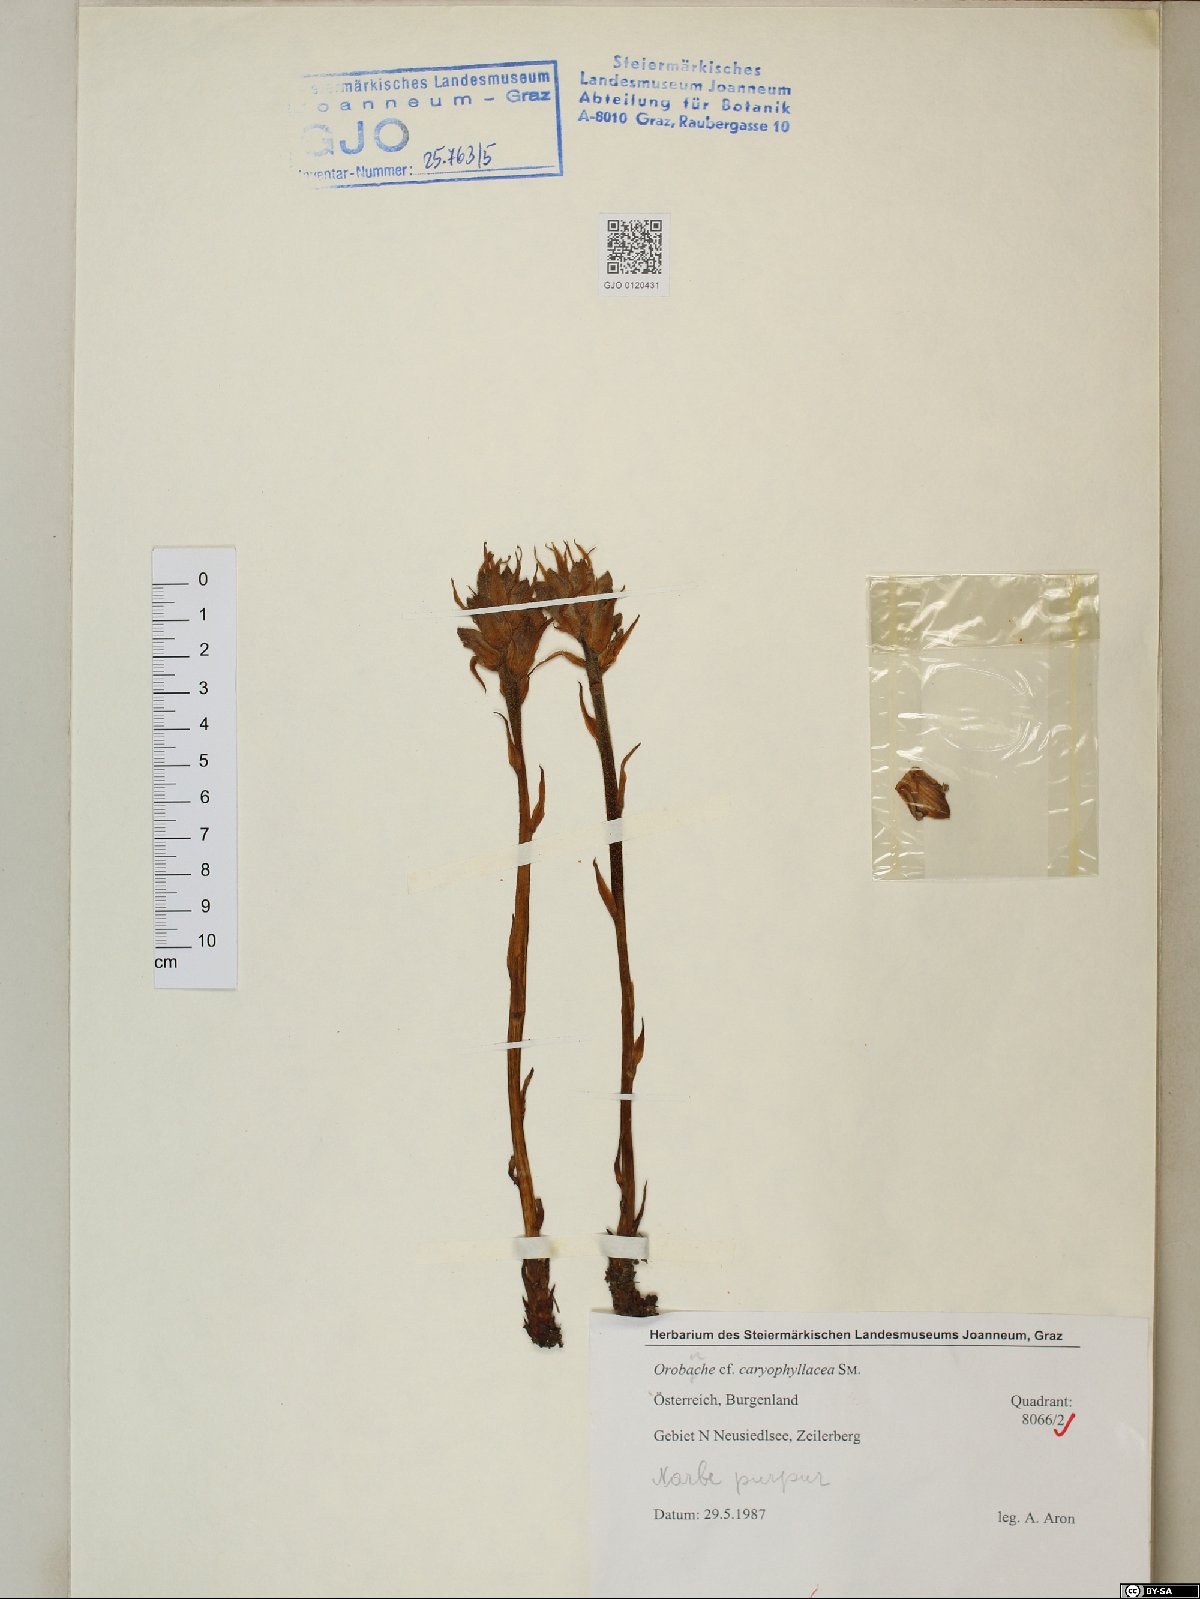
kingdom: Plantae
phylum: Tracheophyta
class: Magnoliopsida
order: Lamiales
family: Orobanchaceae
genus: Orobanche
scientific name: Orobanche caryophyllacea
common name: Bedstraw broomrape
